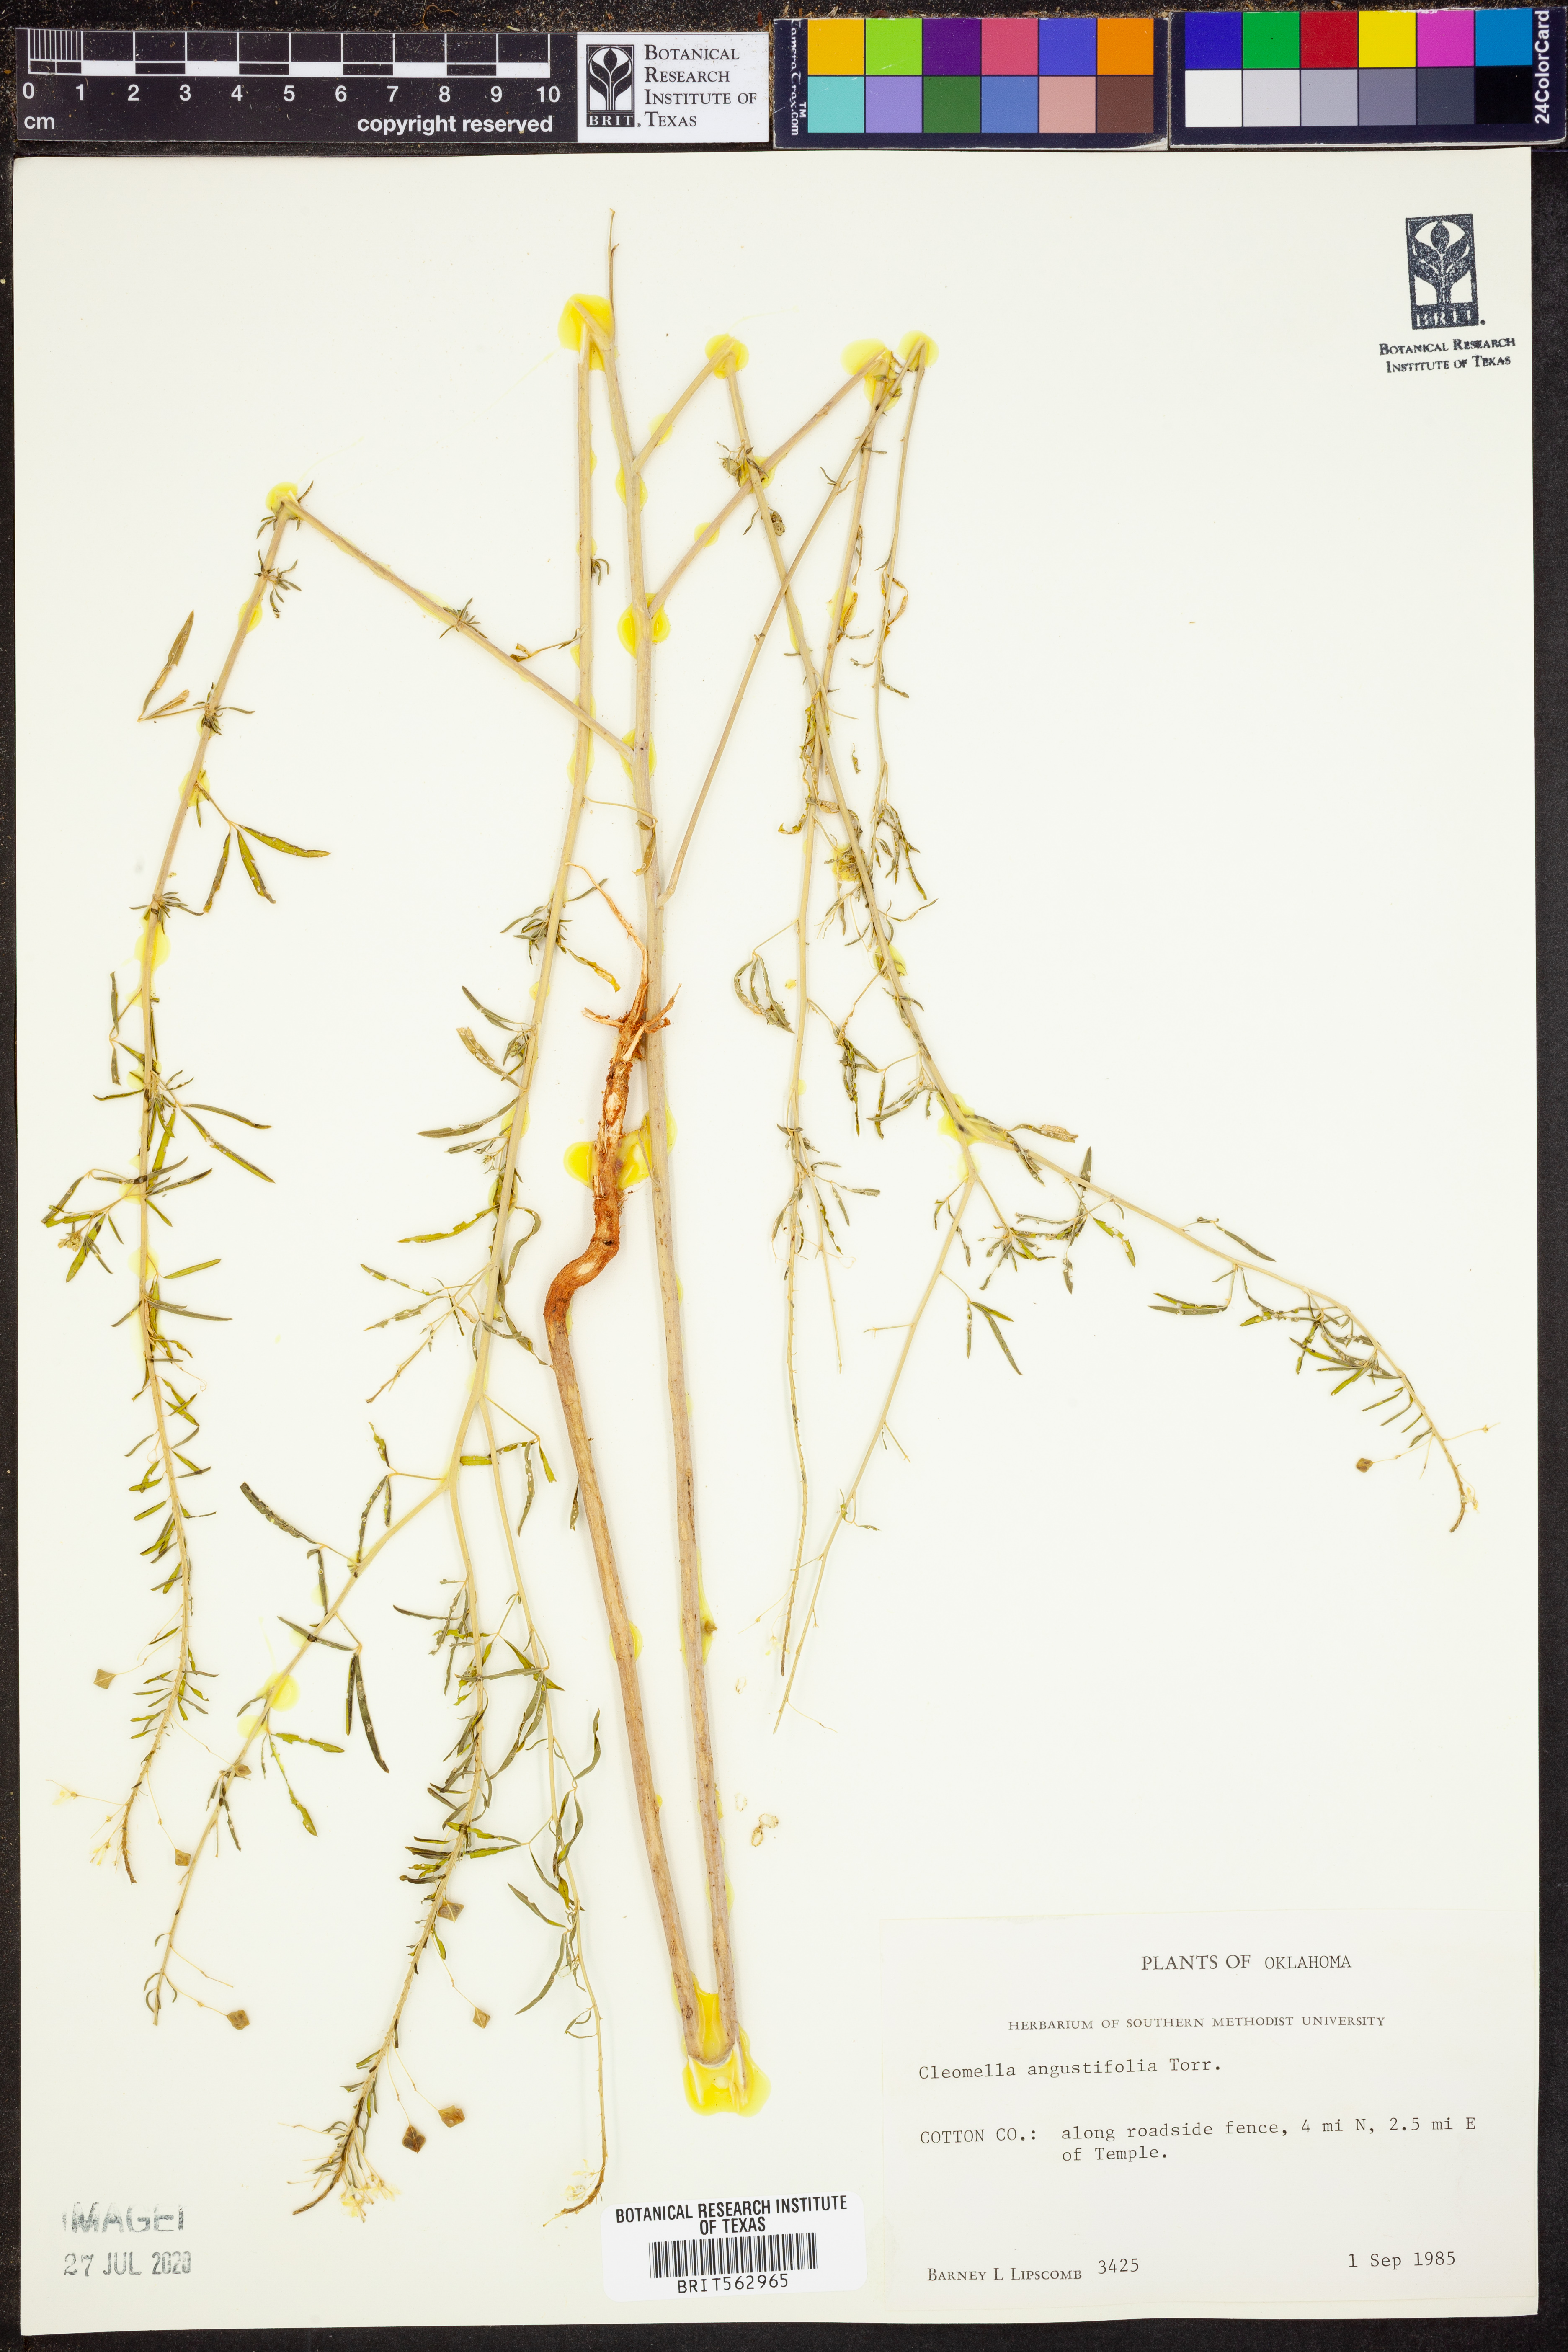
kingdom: Plantae
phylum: Tracheophyta
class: Magnoliopsida
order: Brassicales
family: Cleomaceae
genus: Cleomella
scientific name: Cleomella angustifolia
